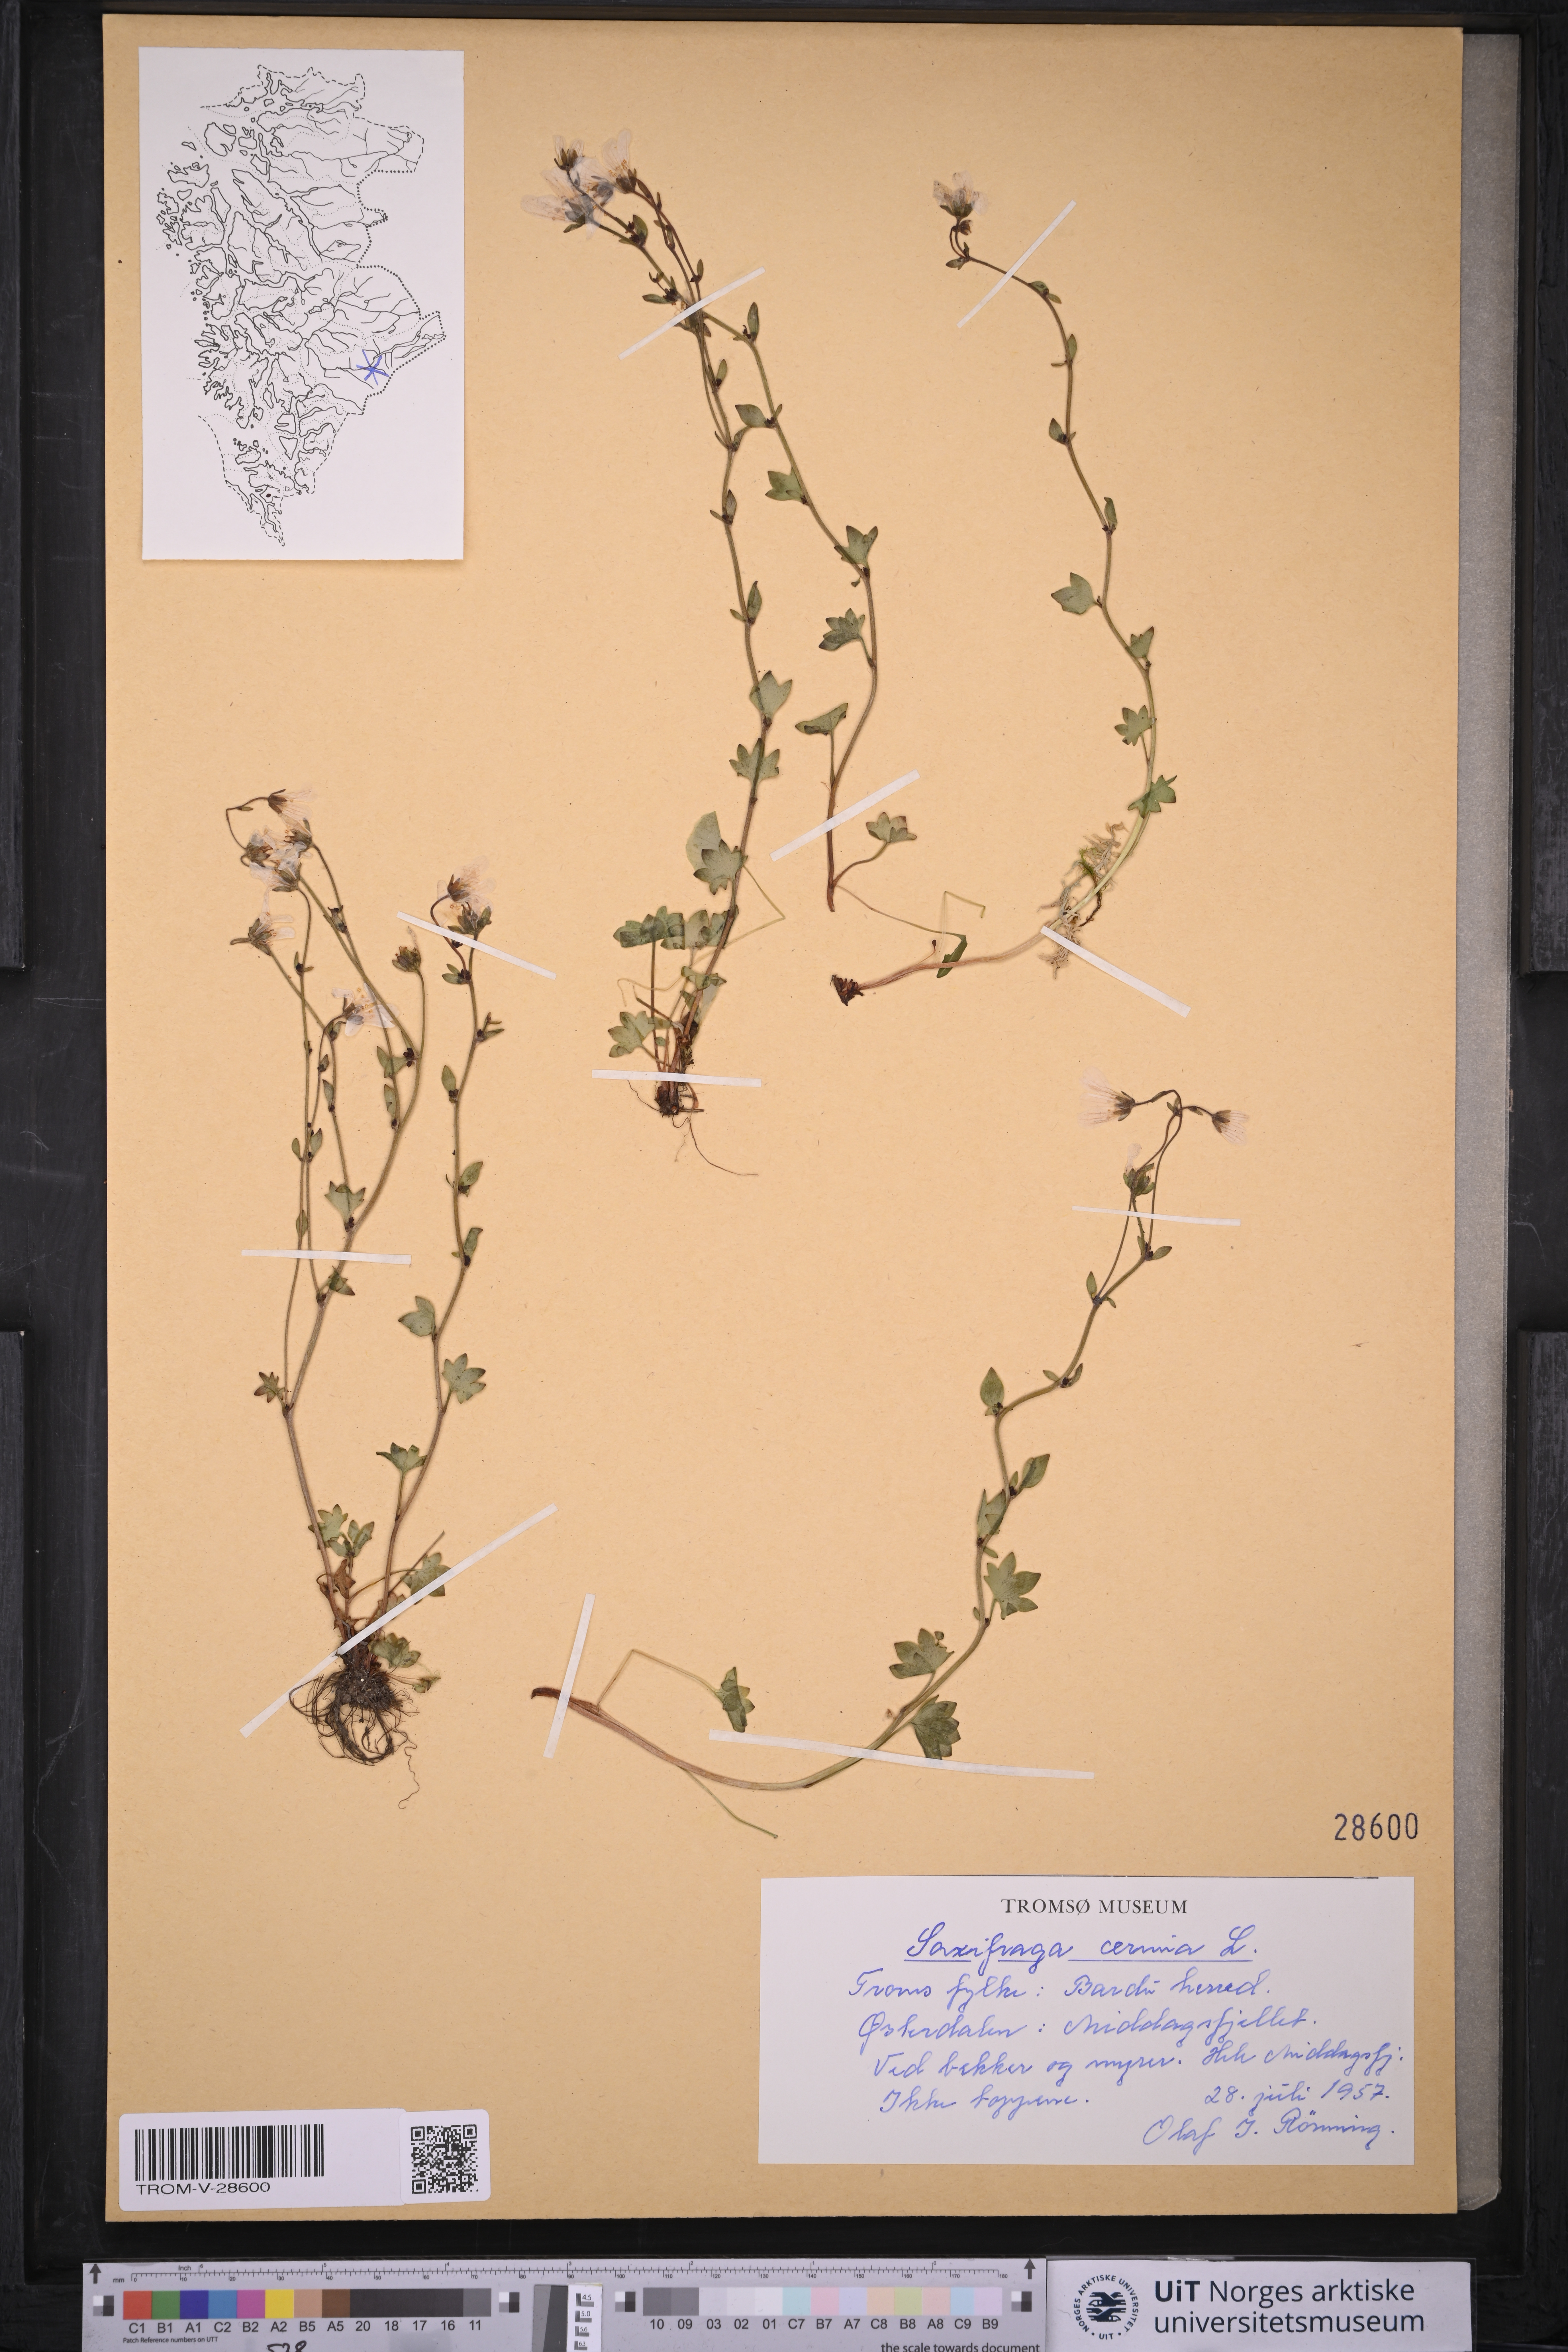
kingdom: Plantae
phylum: Tracheophyta
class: Magnoliopsida
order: Saxifragales
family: Saxifragaceae
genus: Saxifraga
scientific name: Saxifraga cernua
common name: Drooping saxifrage
